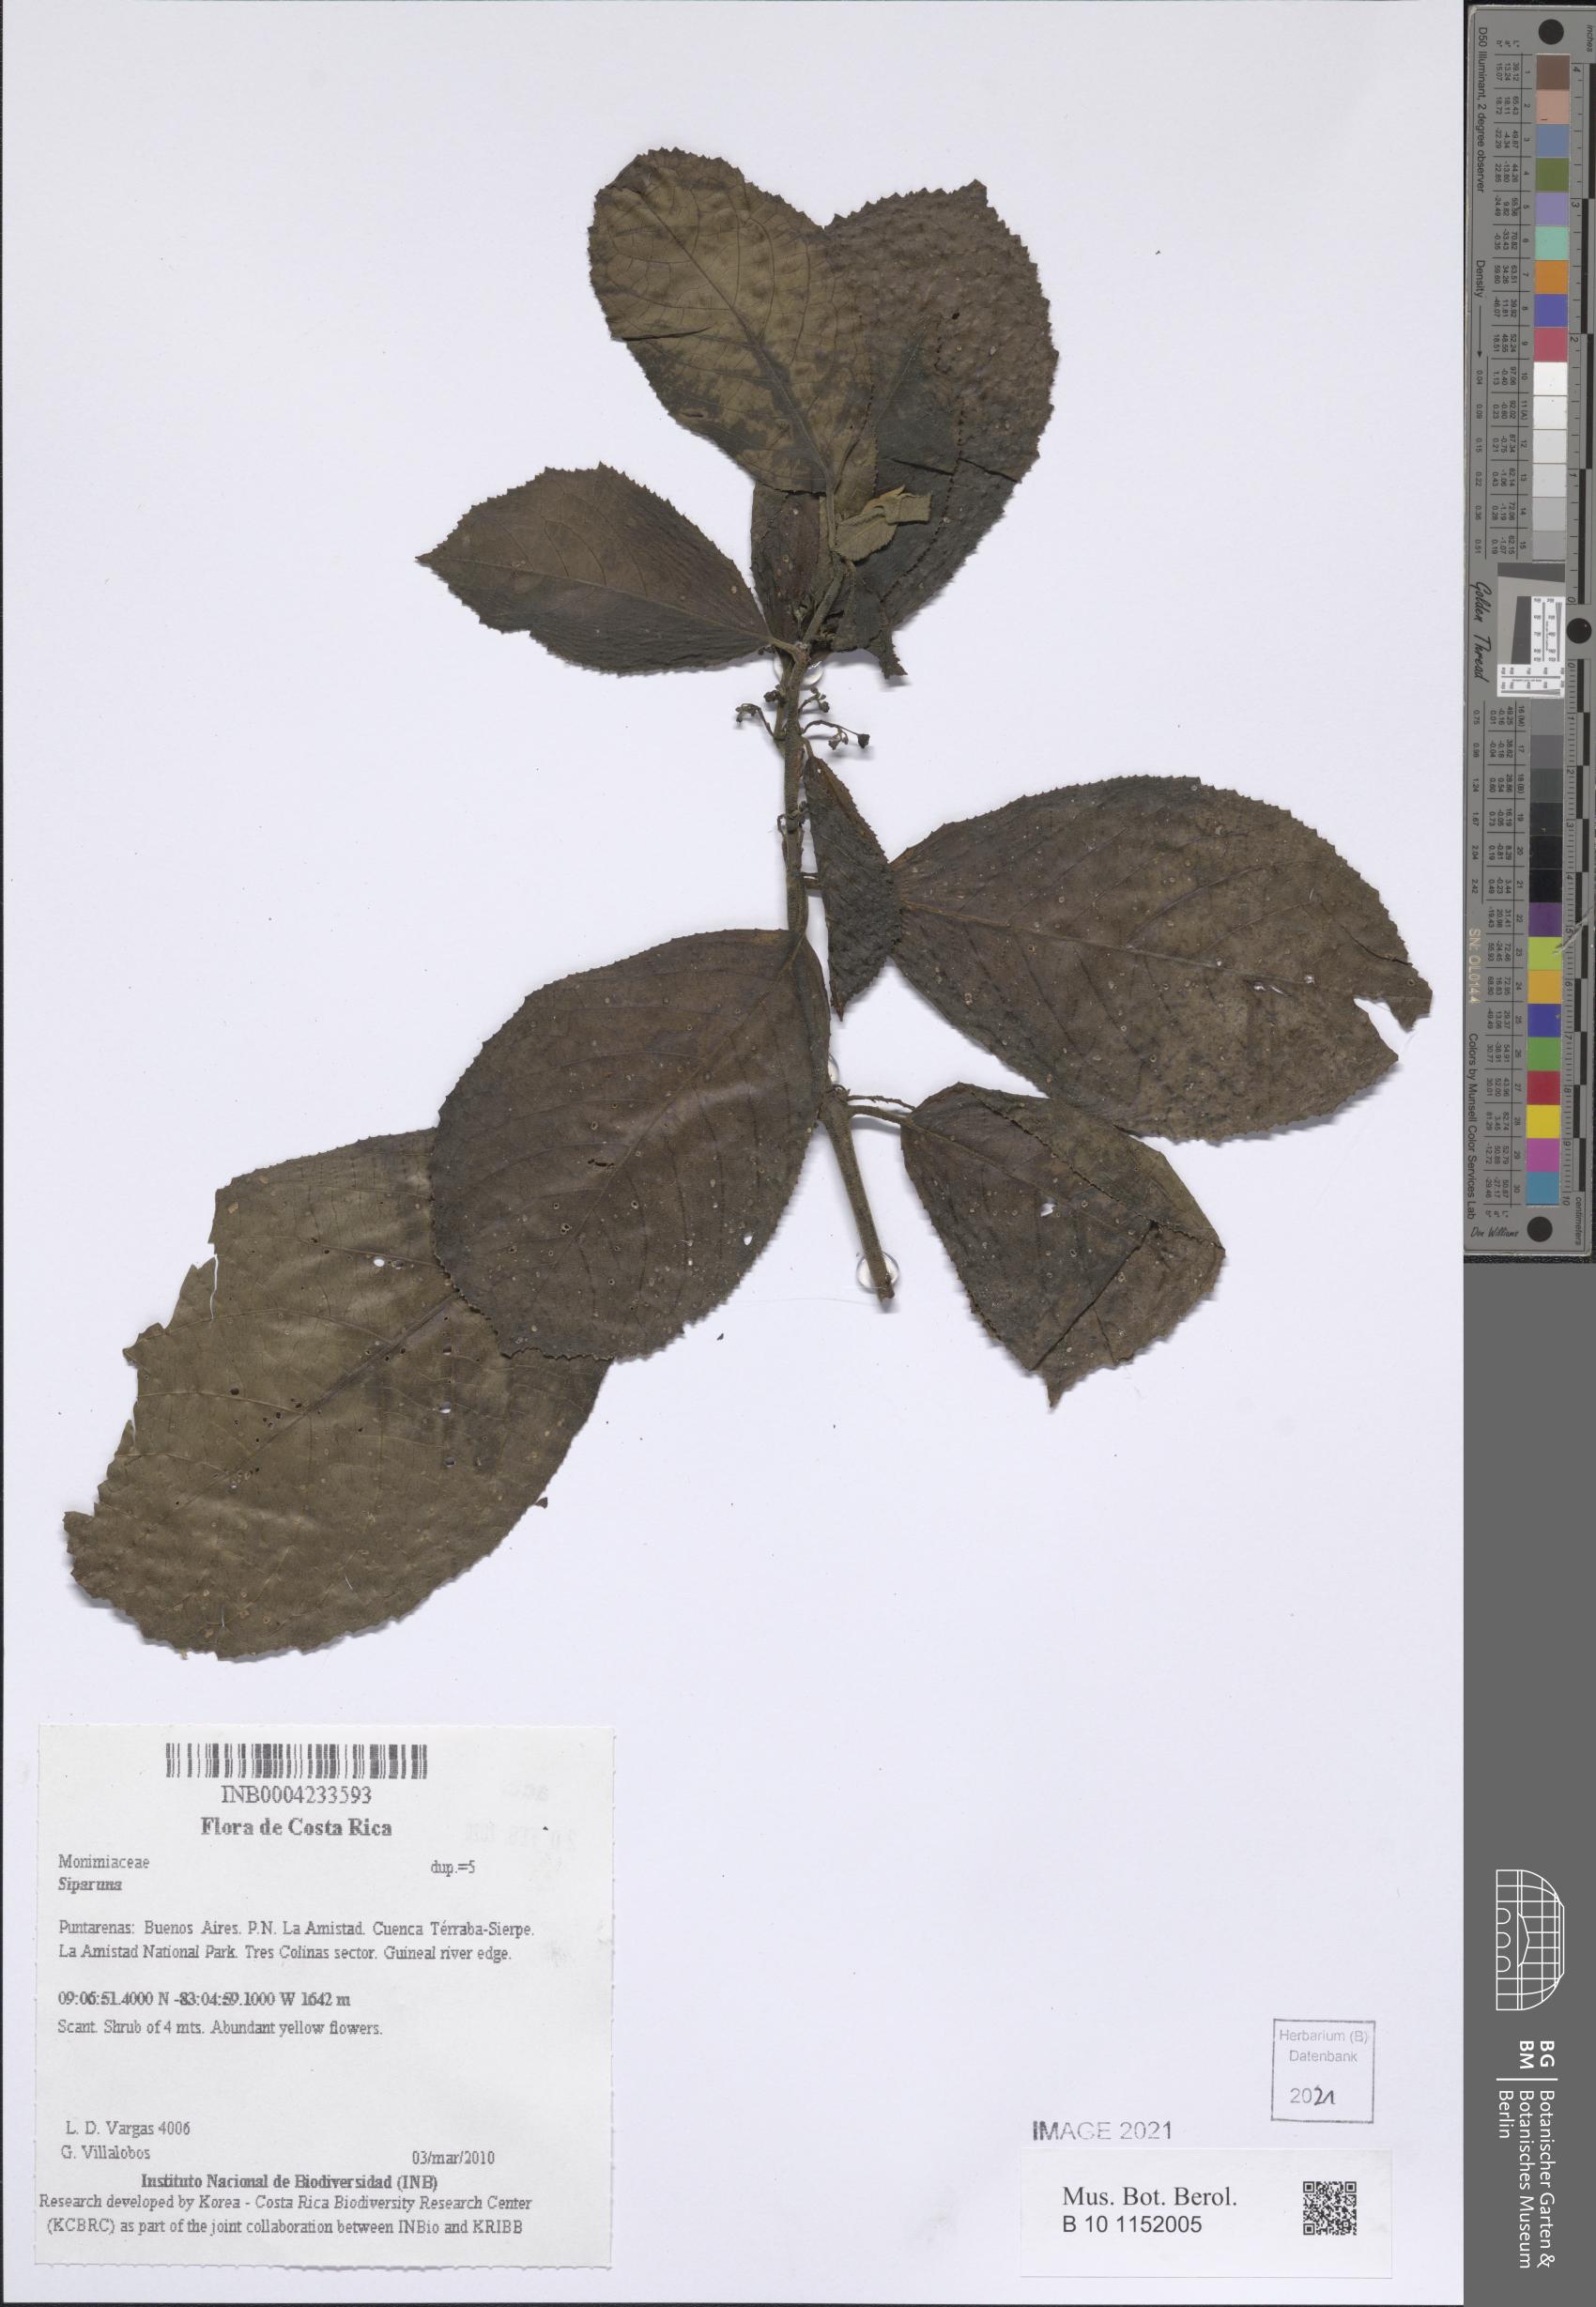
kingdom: Plantae
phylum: Tracheophyta
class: Magnoliopsida
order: Laurales
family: Siparunaceae
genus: Siparuna
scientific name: Siparuna
